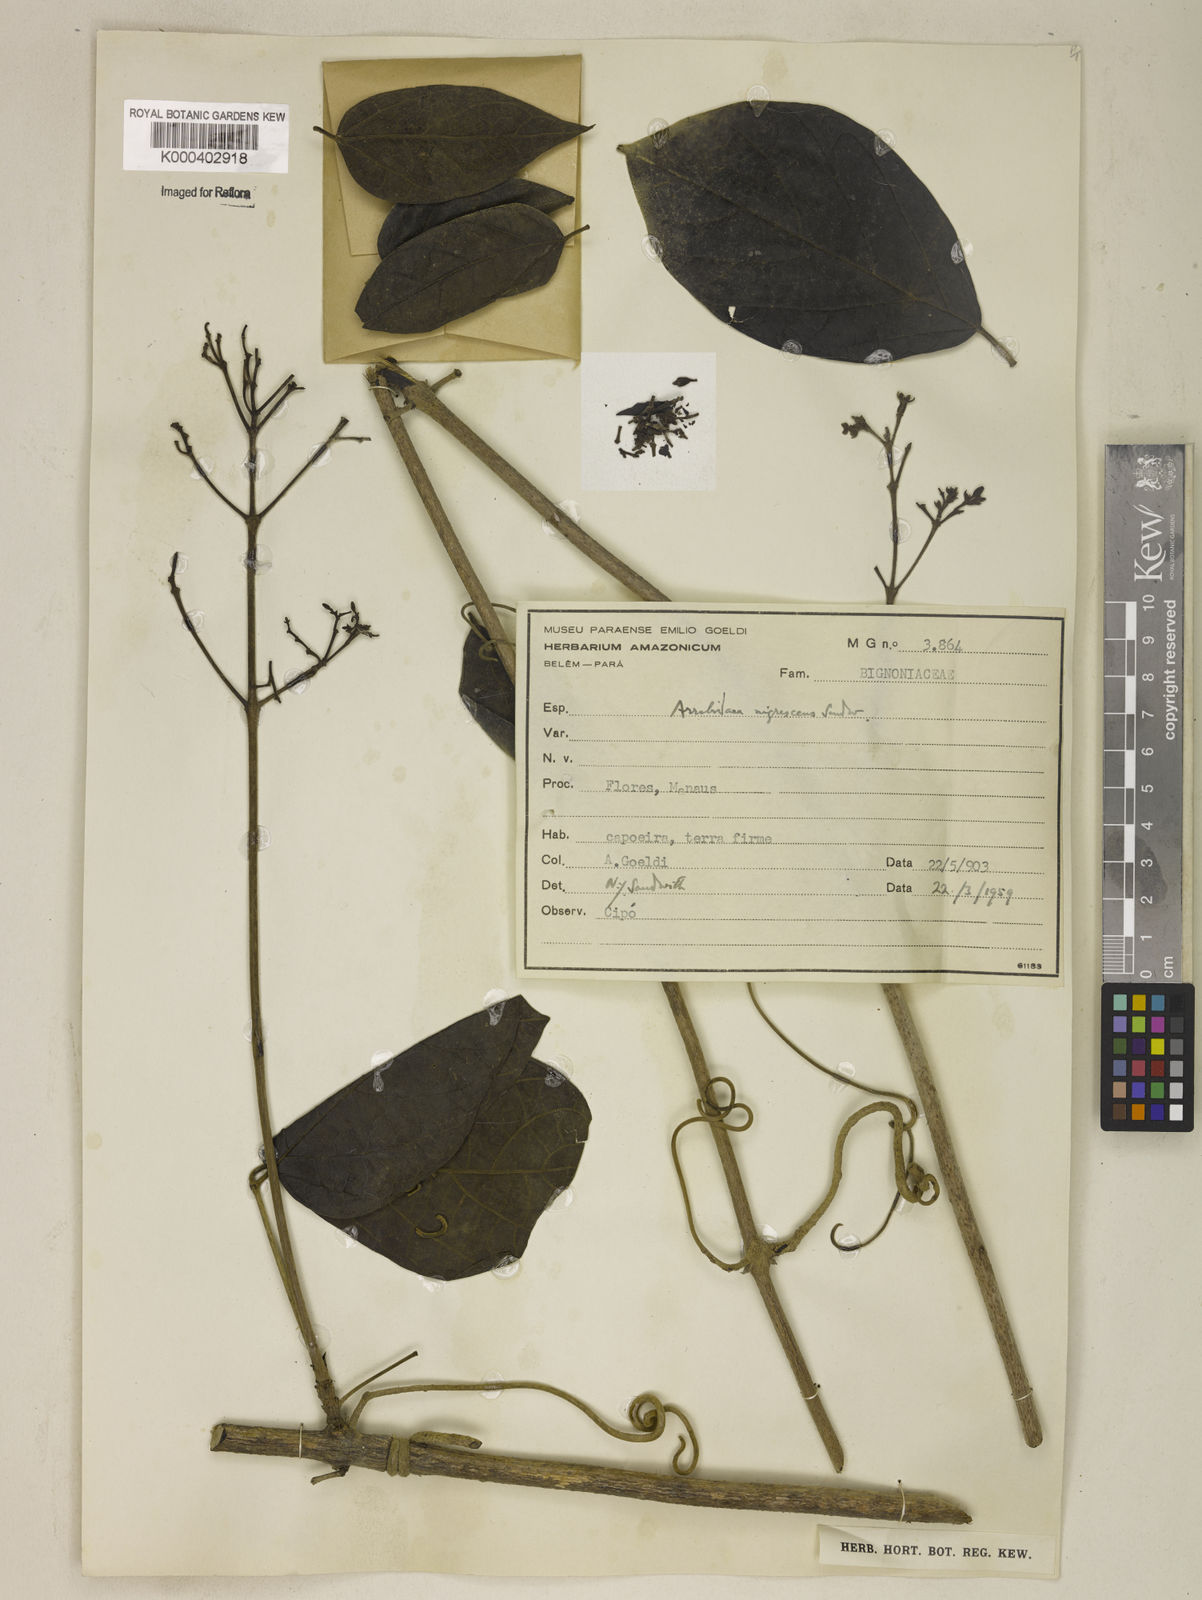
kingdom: Plantae
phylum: Tracheophyta
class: Magnoliopsida
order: Lamiales
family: Bignoniaceae
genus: Fridericia
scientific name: Fridericia nigrescens
